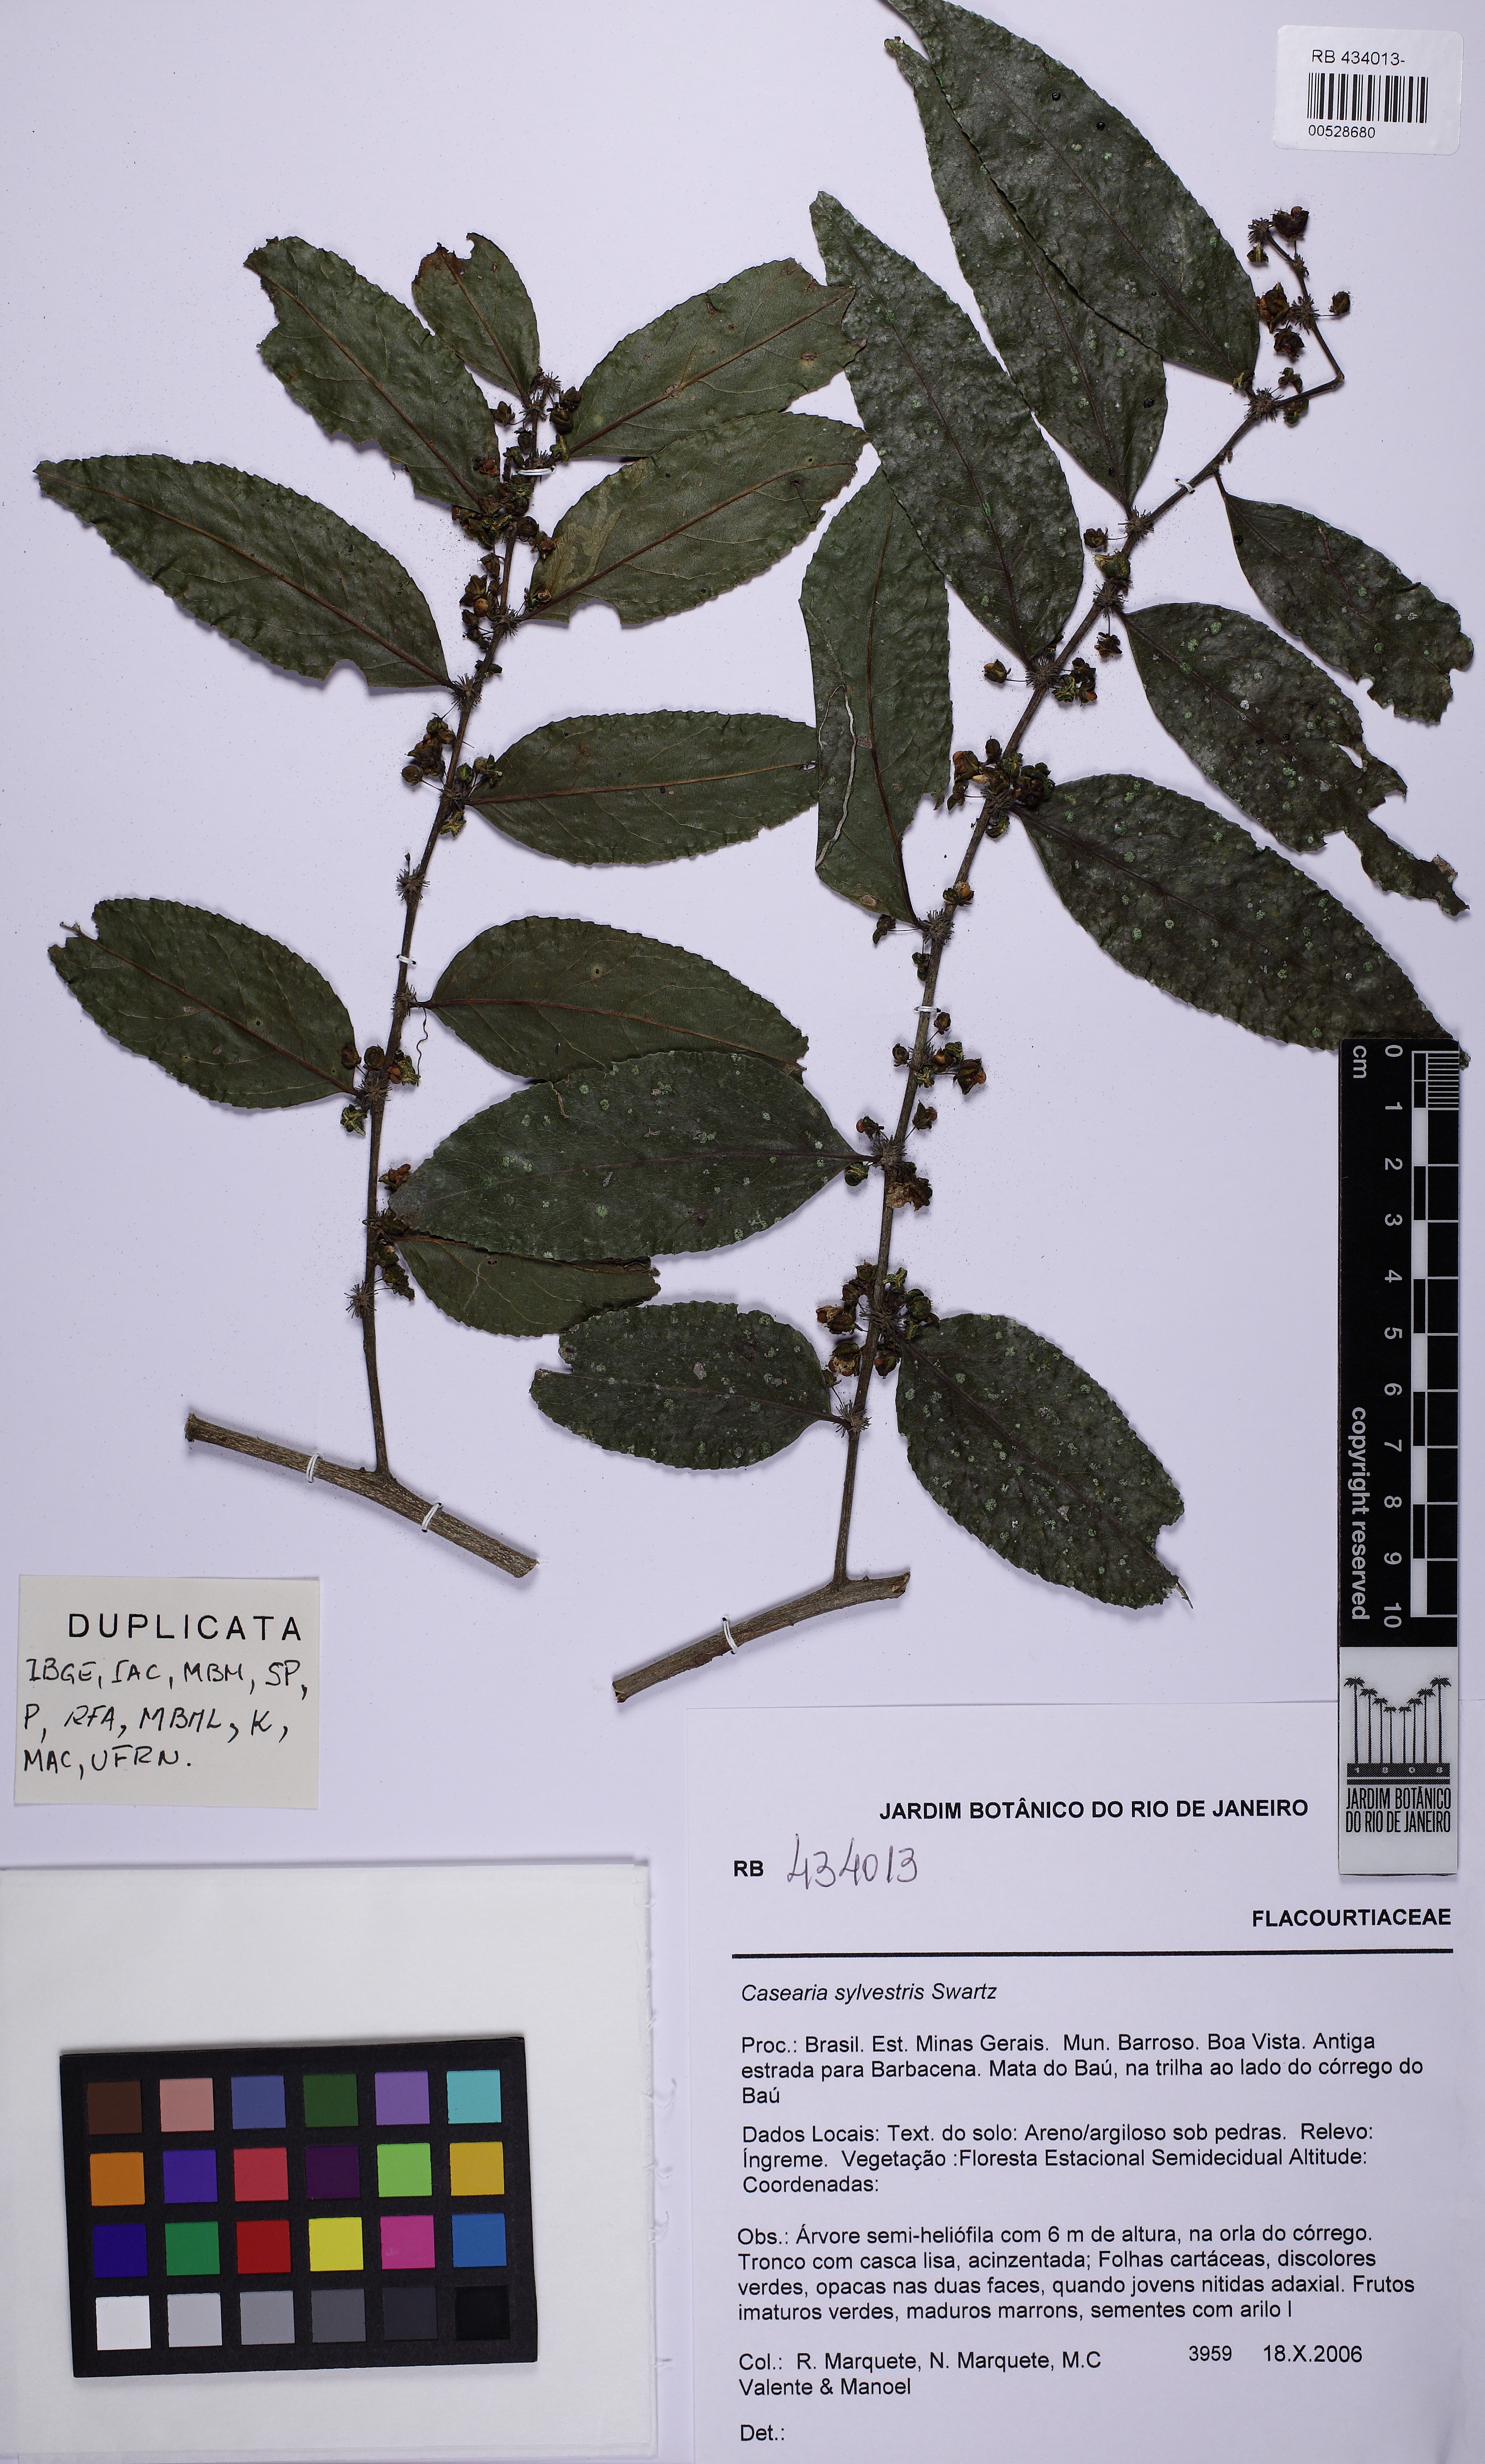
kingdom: Plantae
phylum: Tracheophyta
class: Magnoliopsida
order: Malpighiales
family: Salicaceae
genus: Casearia
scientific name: Casearia sylvestris
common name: Wild sage
